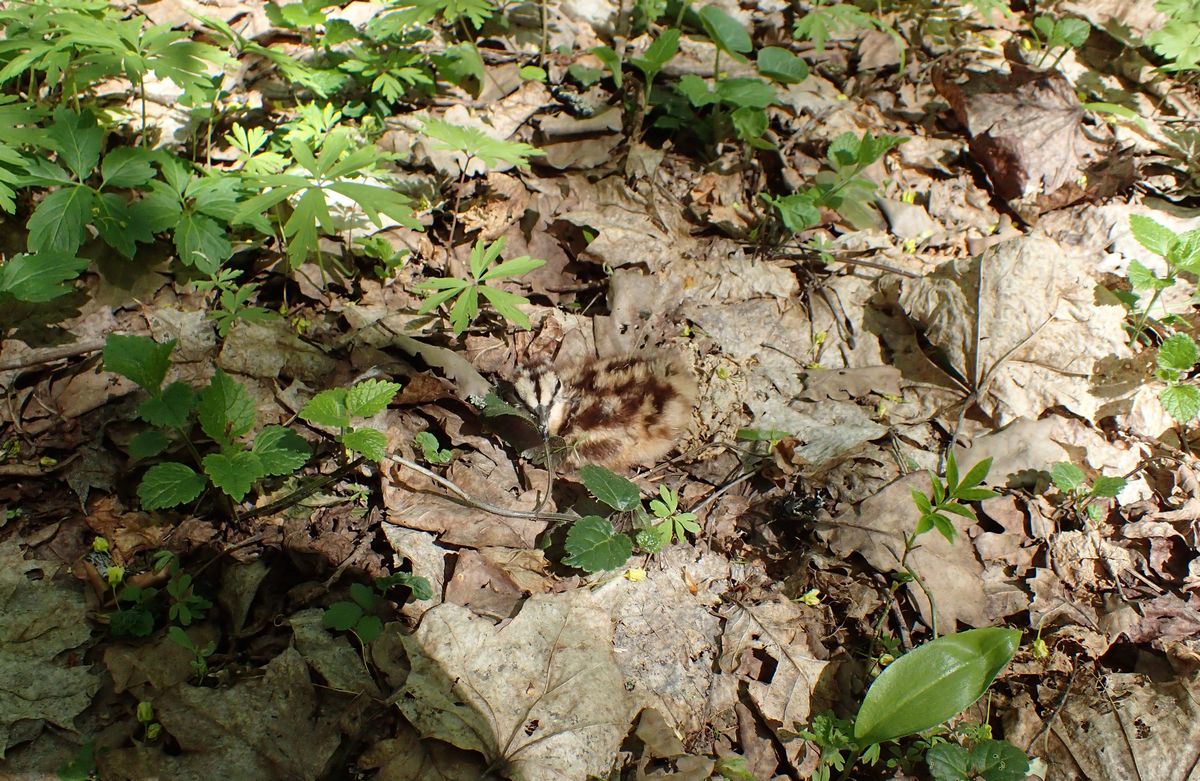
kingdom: Animalia
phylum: Chordata
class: Aves
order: Charadriiformes
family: Scolopacidae
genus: Scolopax
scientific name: Scolopax rusticola
